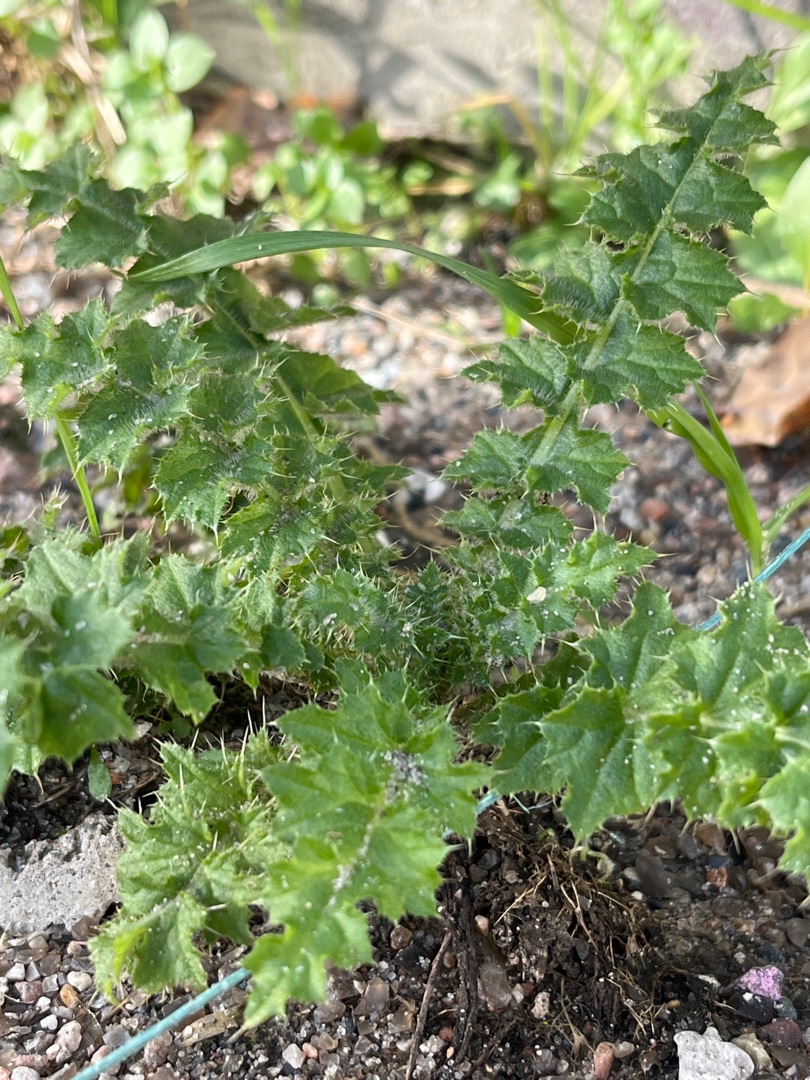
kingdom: Plantae
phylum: Tracheophyta
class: Magnoliopsida
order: Asterales
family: Asteraceae
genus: Carduus
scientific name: Carduus crispus
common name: Kruset tidsel
